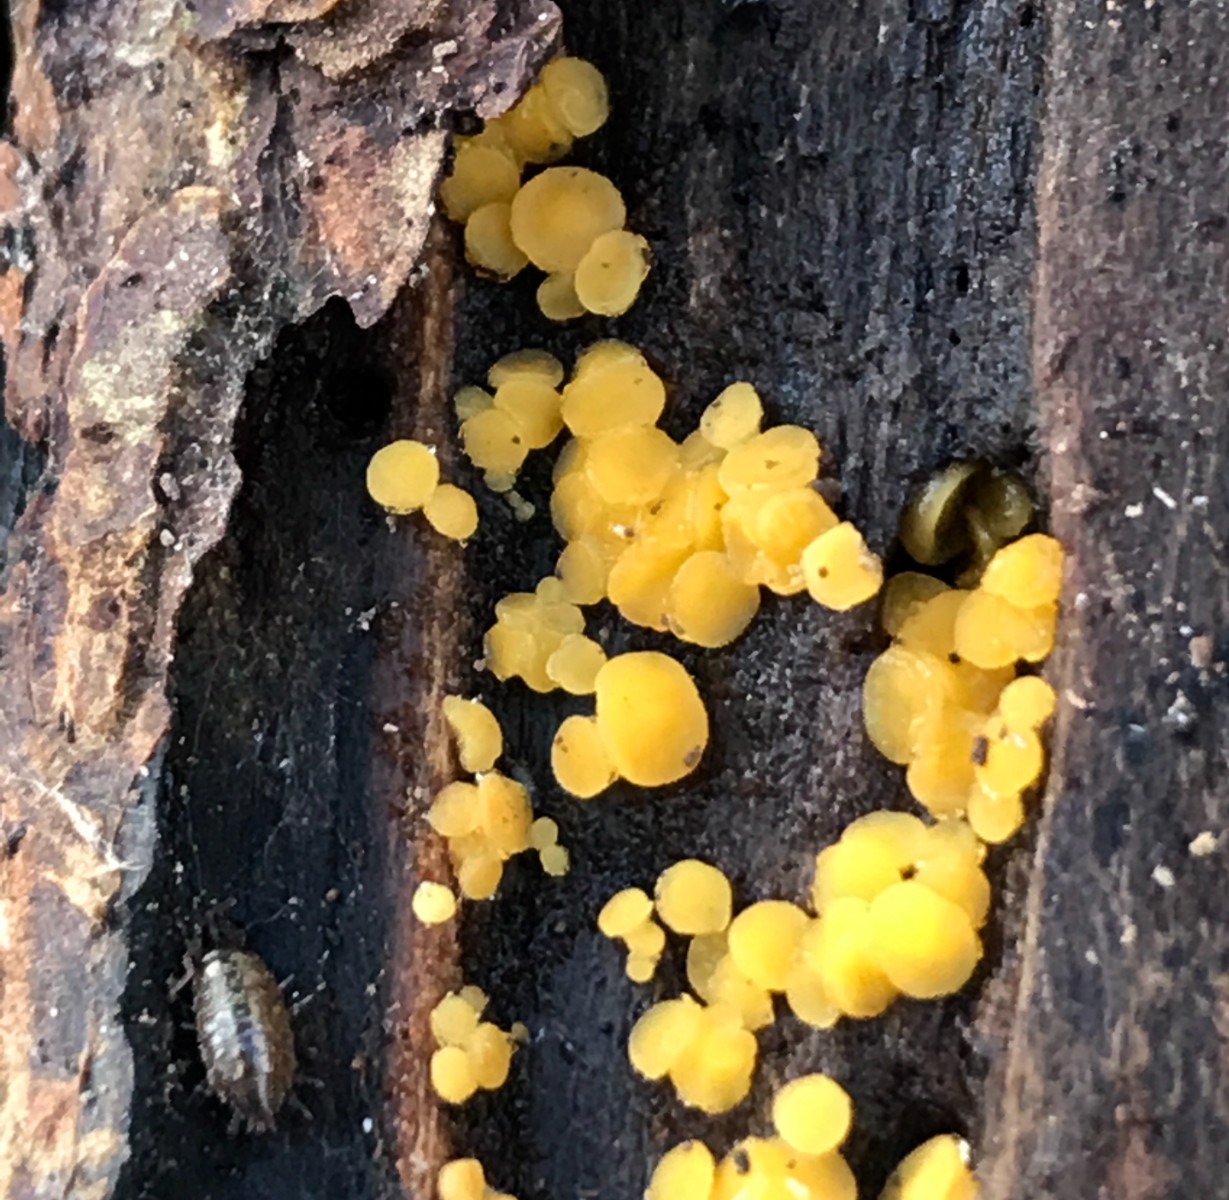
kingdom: Fungi
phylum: Ascomycota
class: Leotiomycetes
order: Helotiales
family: Pezizellaceae
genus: Calycina
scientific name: Calycina citrina
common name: almindelig gulskive
